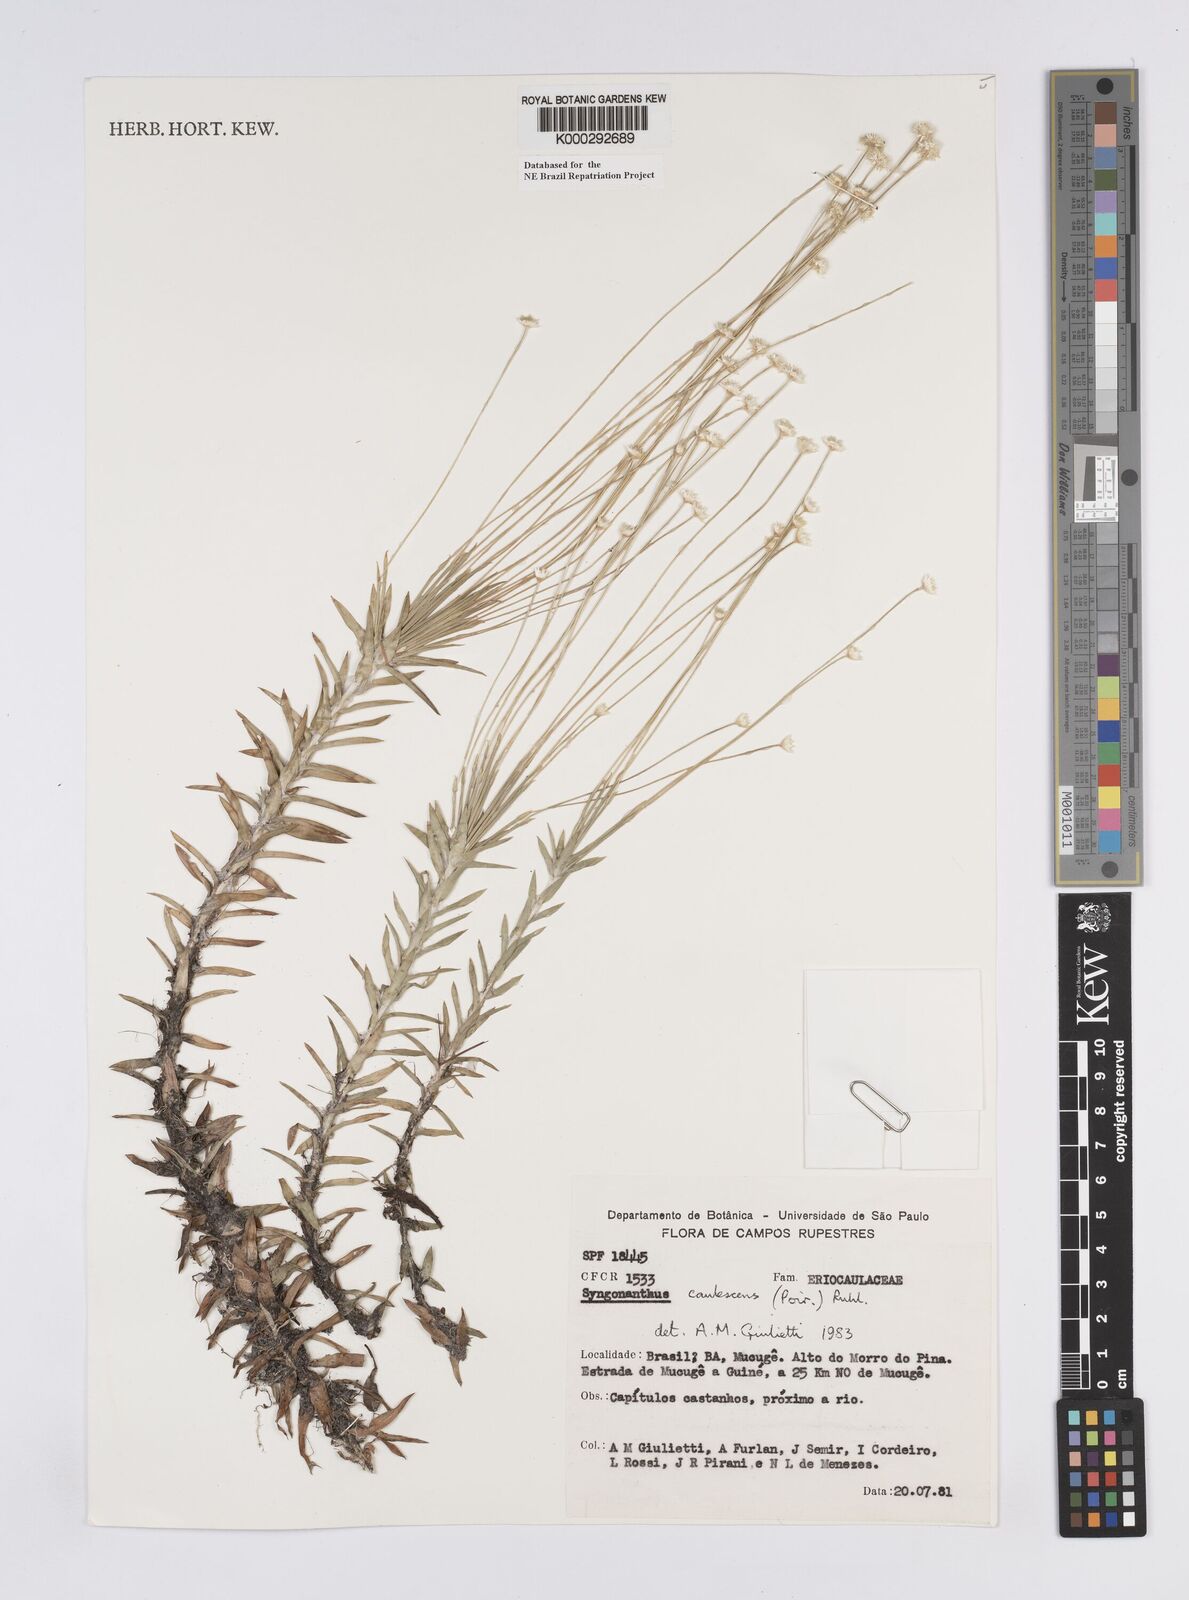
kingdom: Plantae
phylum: Tracheophyta
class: Liliopsida
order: Poales
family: Eriocaulaceae
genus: Syngonanthus
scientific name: Syngonanthus caulescens
